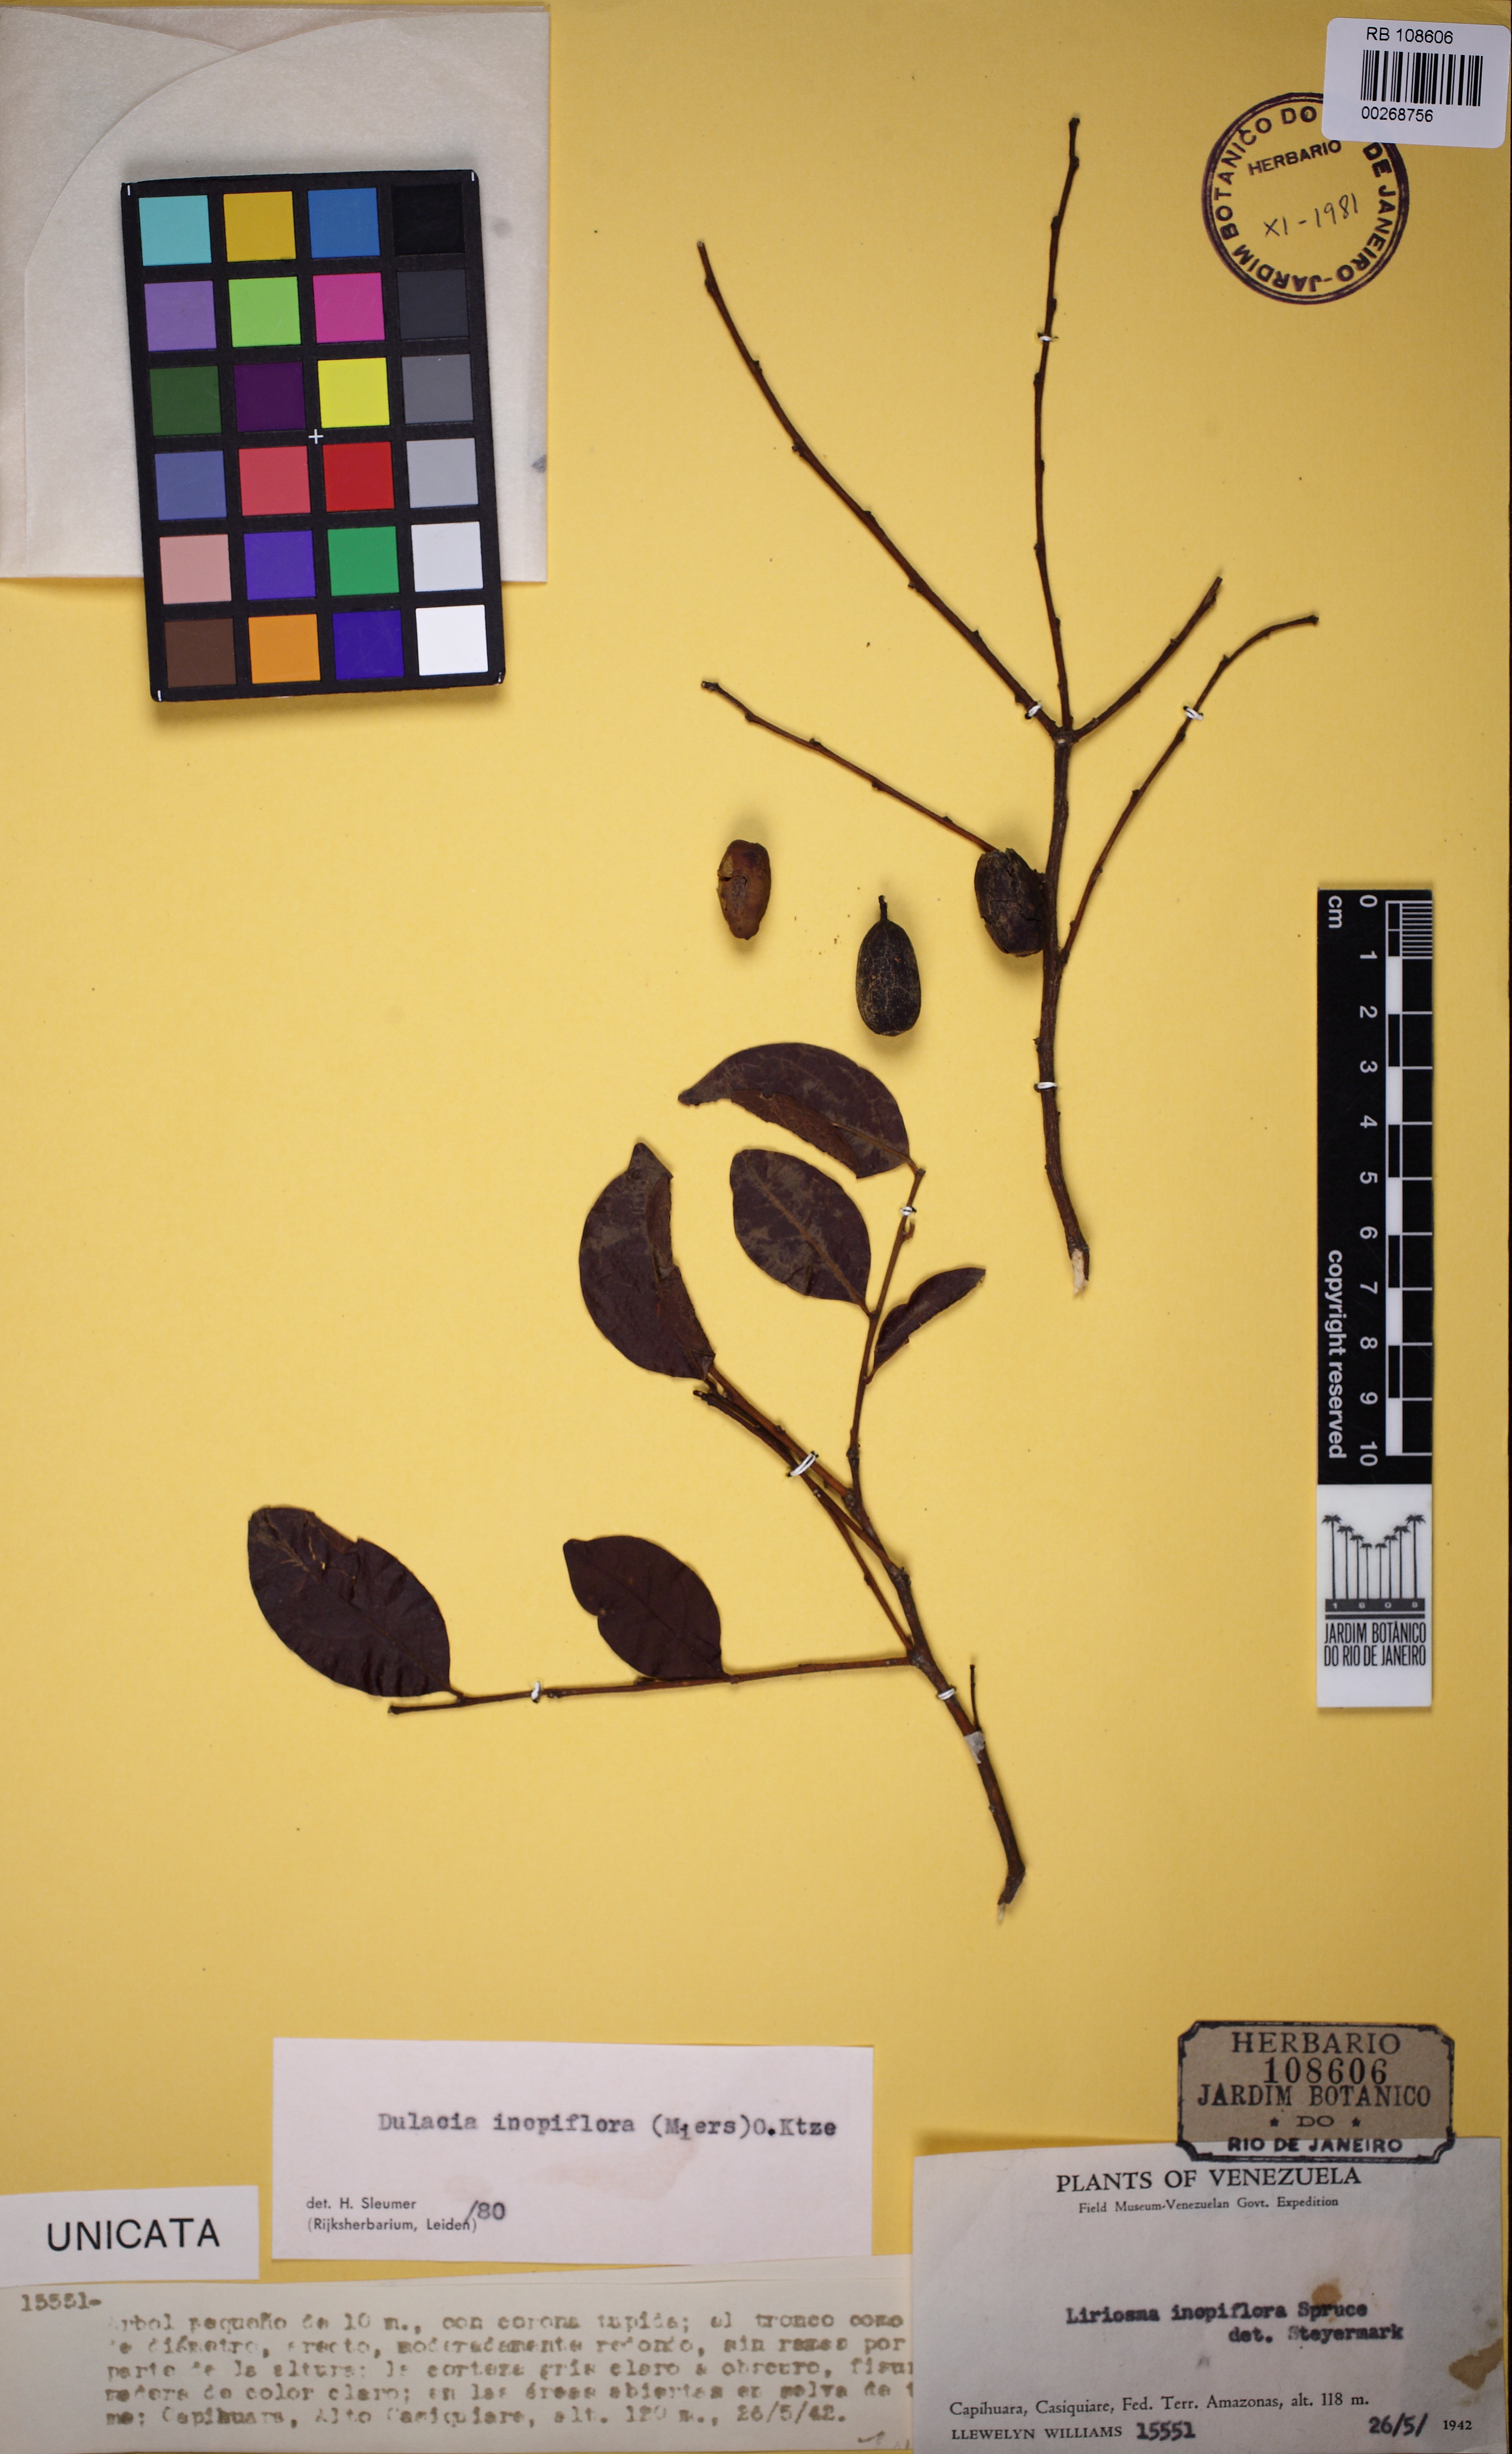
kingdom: Plantae
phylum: Tracheophyta
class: Magnoliopsida
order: Santalales
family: Olacaceae
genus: Dulacia
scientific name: Dulacia inopiflora
